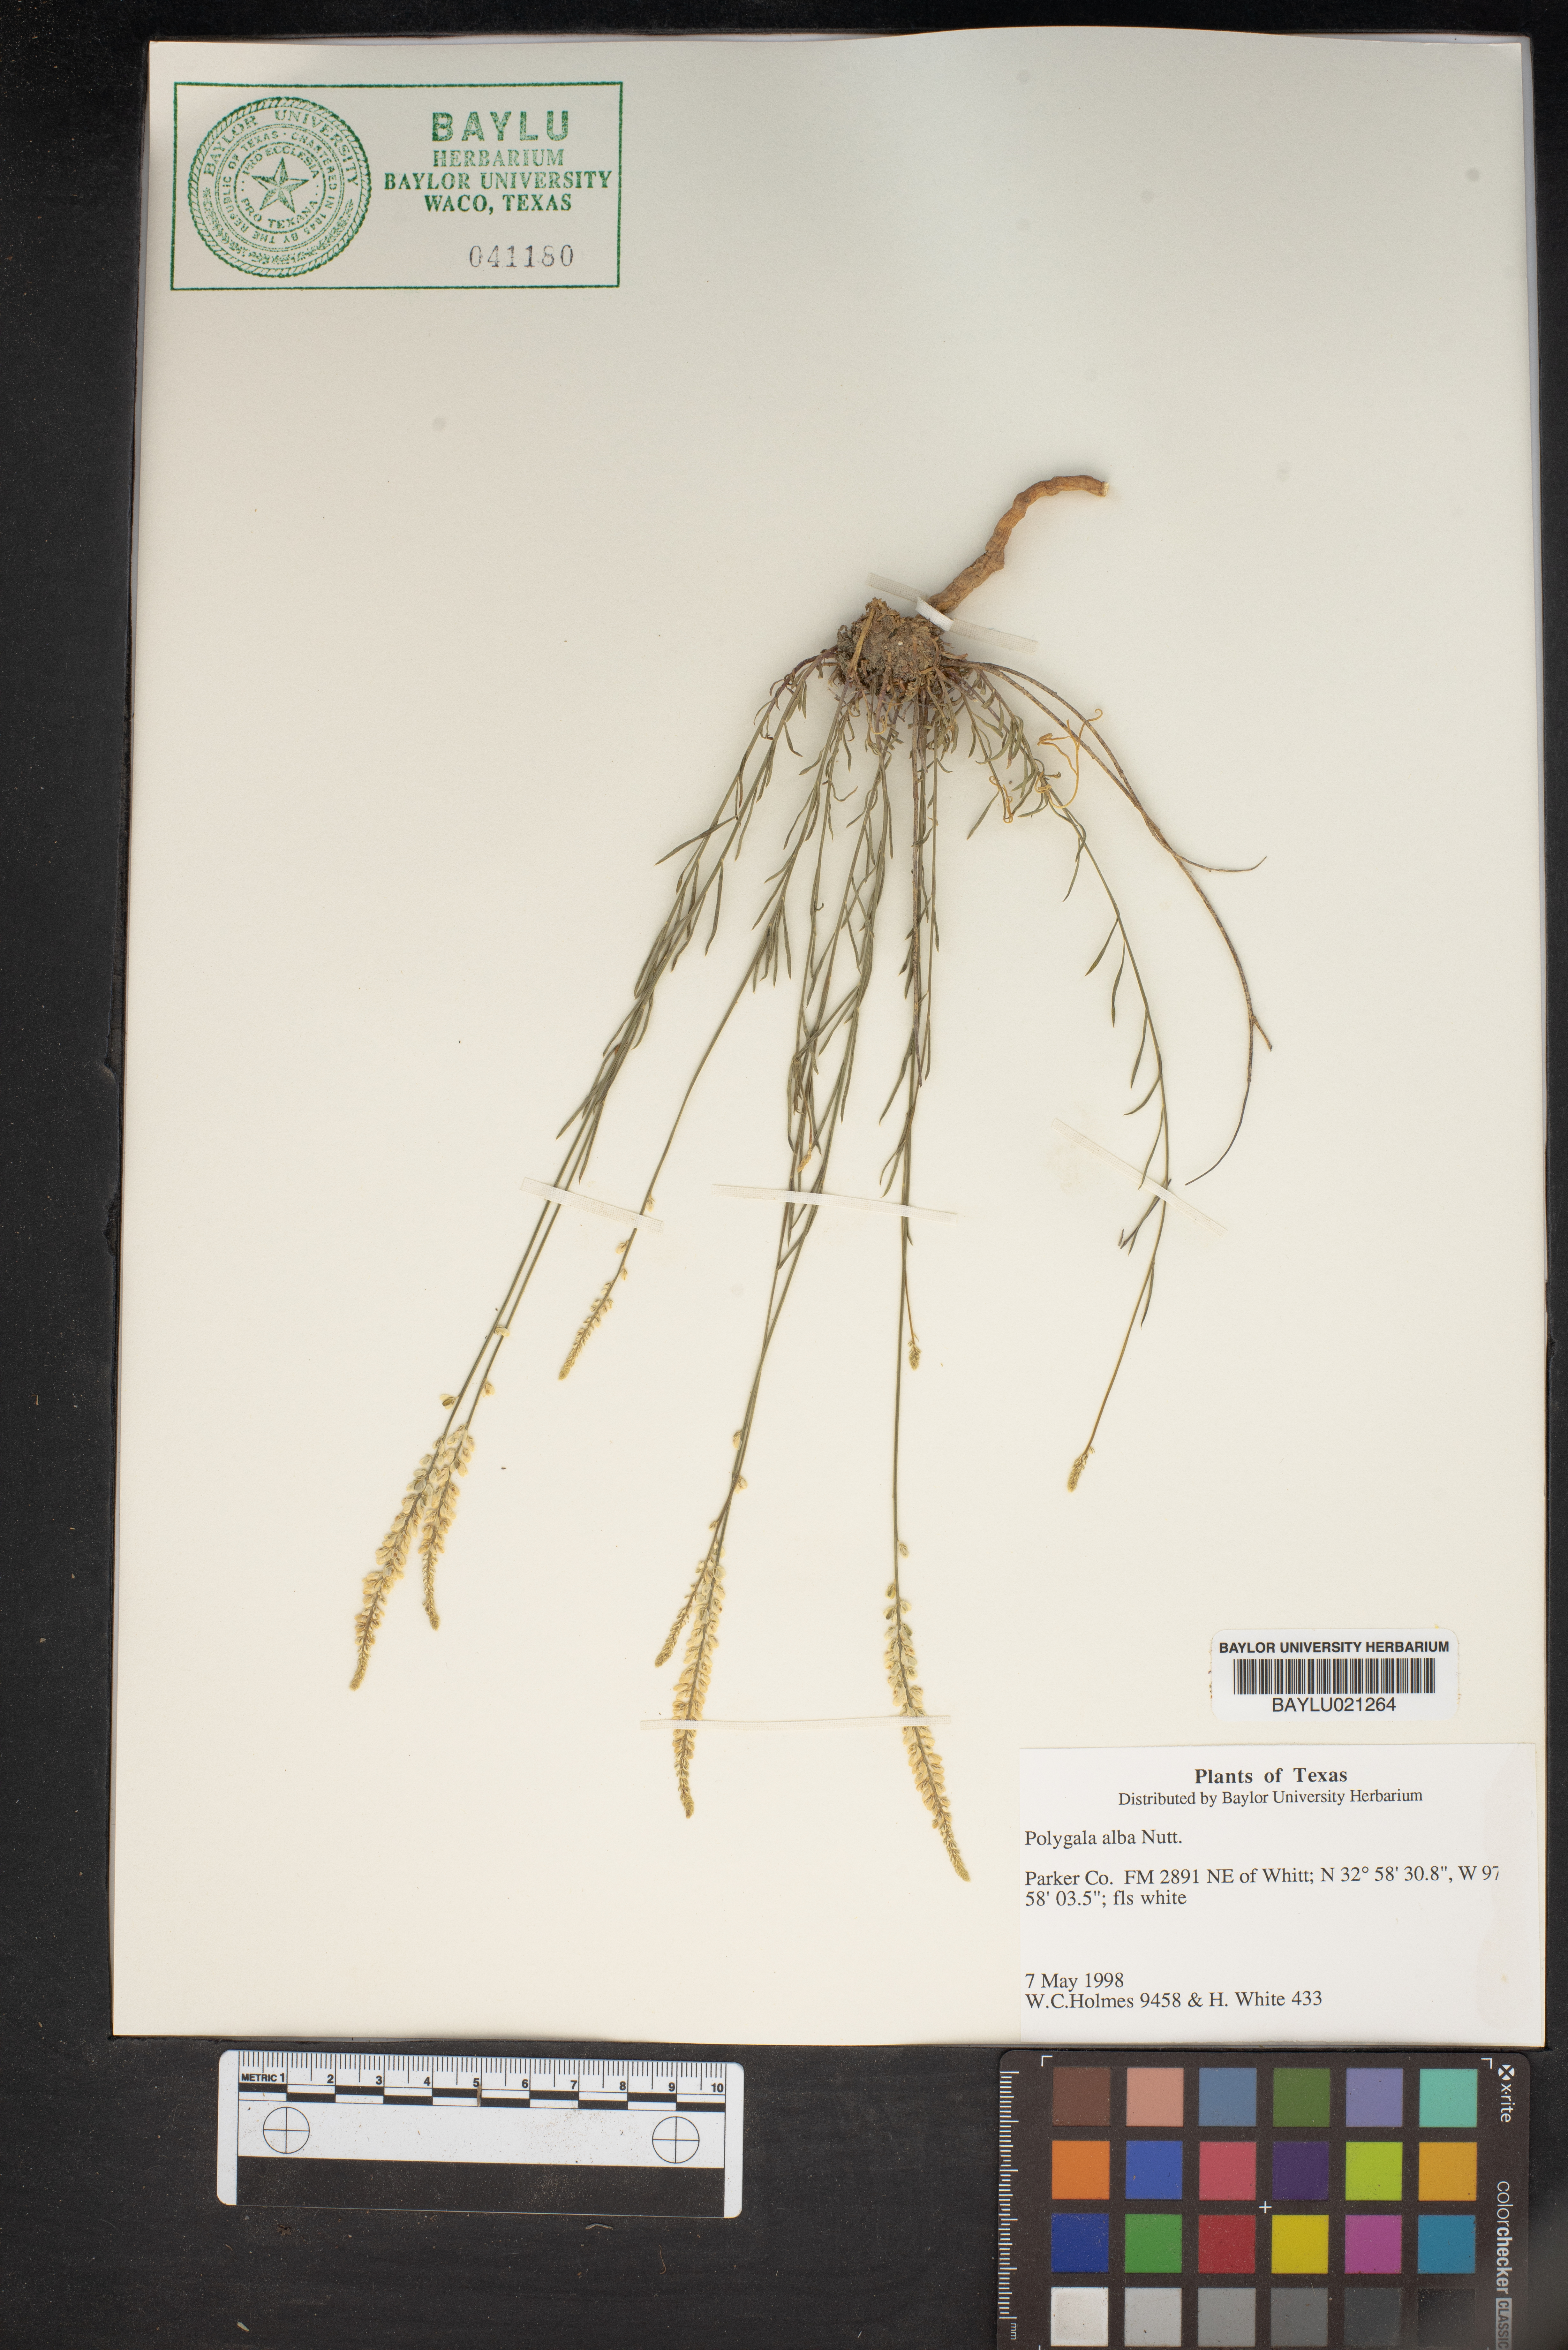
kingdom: Plantae
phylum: Tracheophyta
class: Magnoliopsida
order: Fabales
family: Polygalaceae
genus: Polygala
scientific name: Polygala alba
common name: White milkwort
